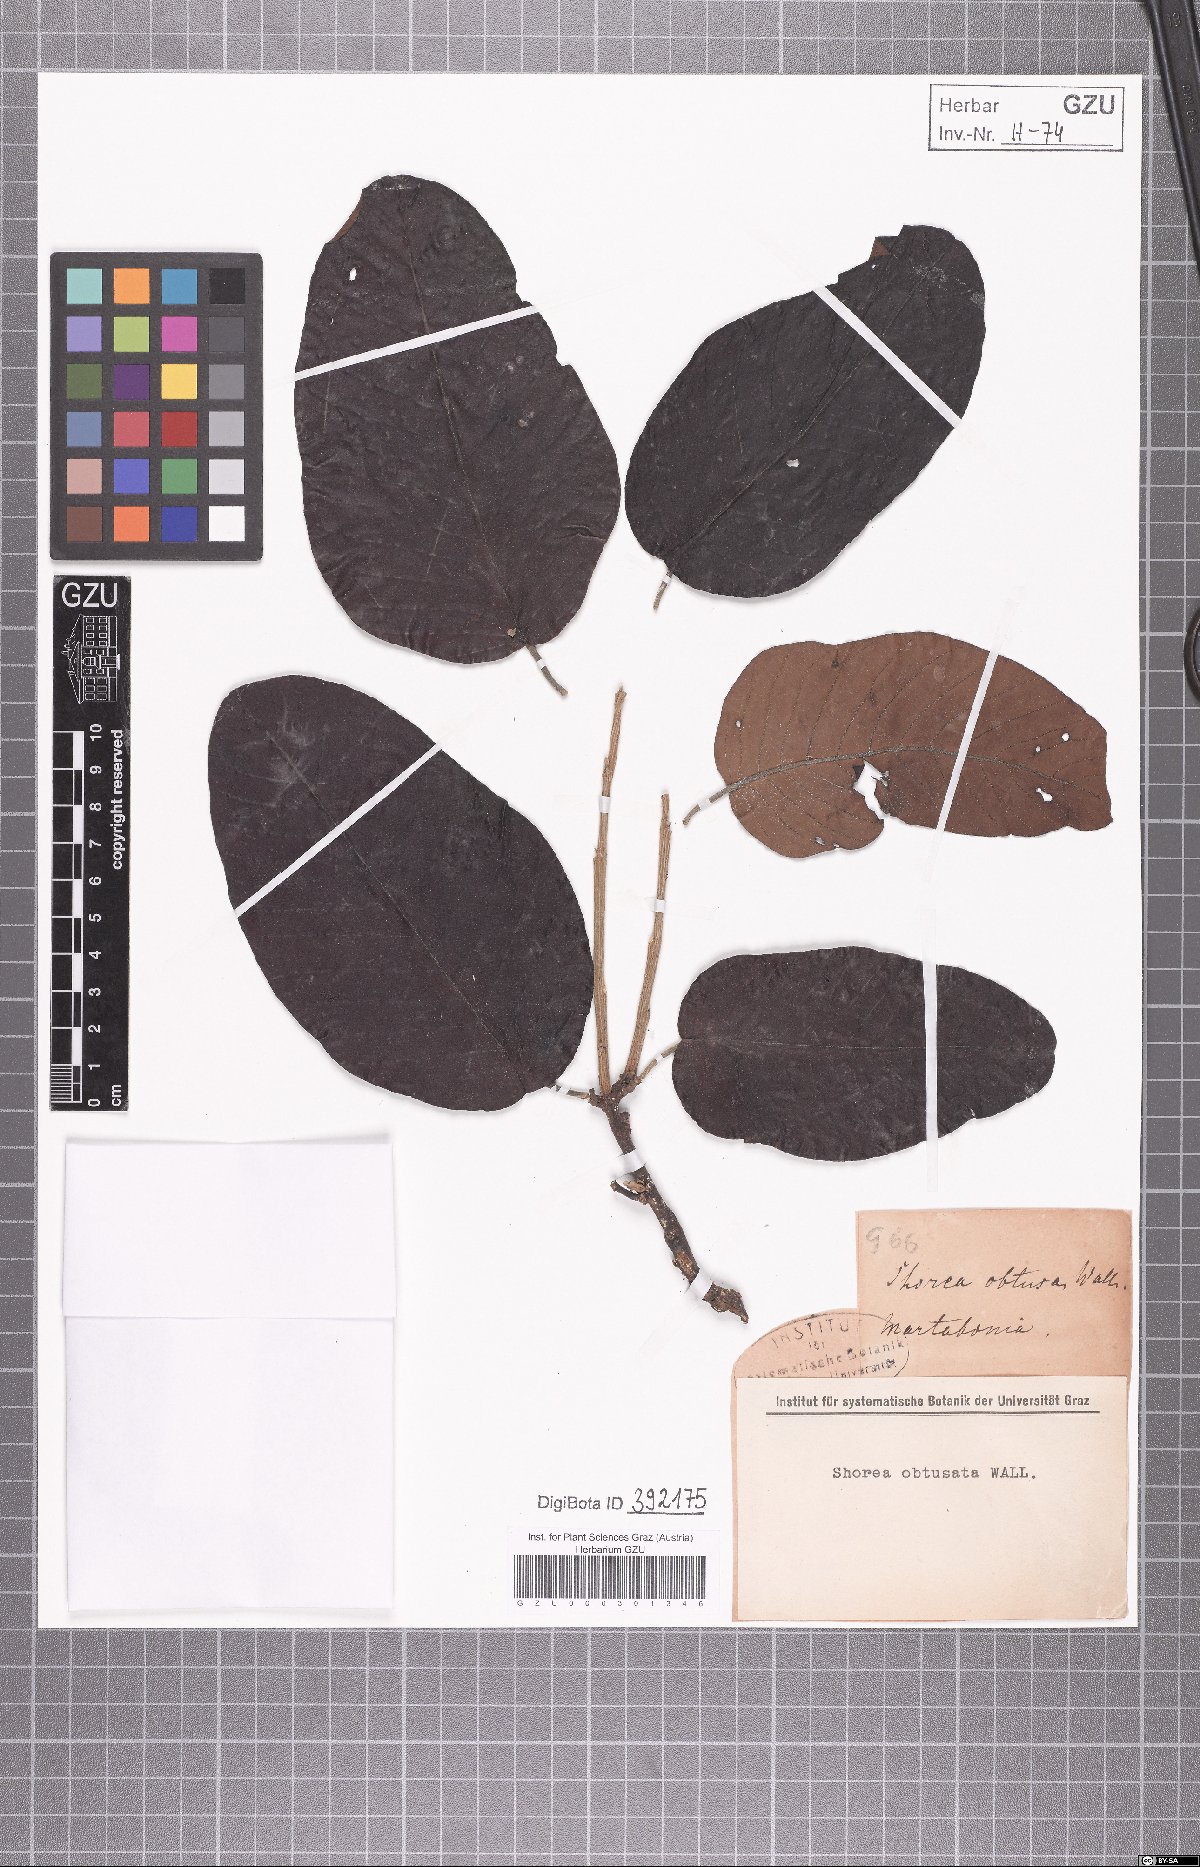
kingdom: Plantae
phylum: Tracheophyta
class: Magnoliopsida
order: Malvales
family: Dipterocarpaceae
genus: Shorea
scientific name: Shorea obtusa
